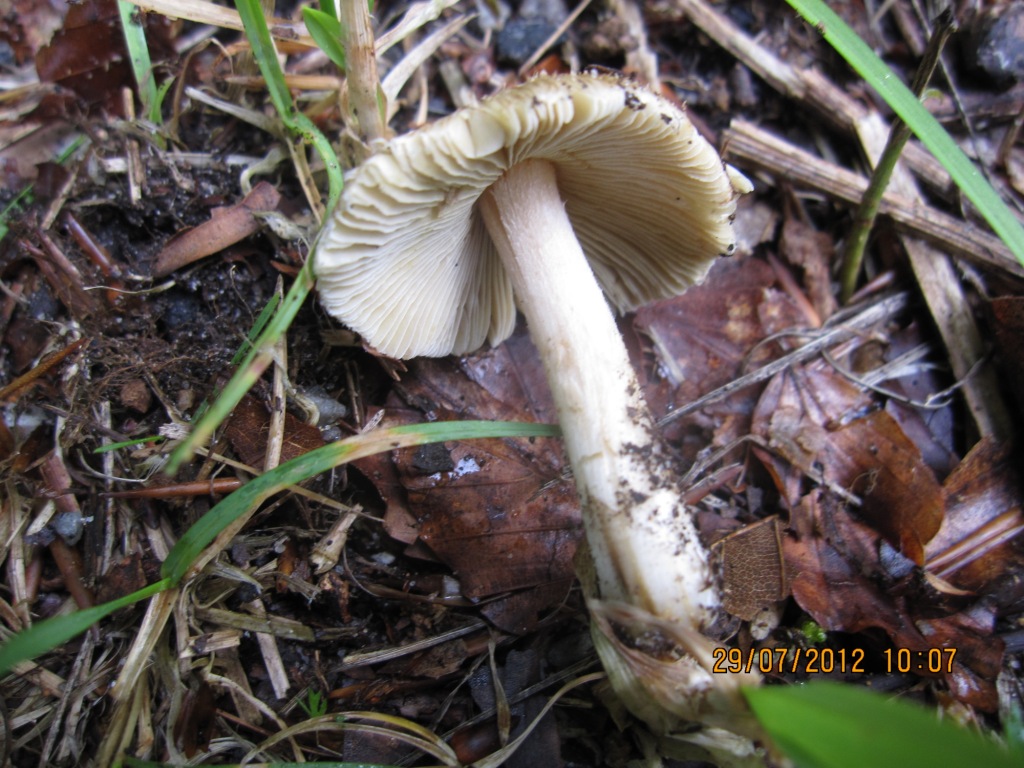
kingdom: Fungi
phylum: Basidiomycota
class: Agaricomycetes
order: Agaricales
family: Inocybaceae
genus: Pseudosperma
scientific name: Pseudosperma rimosum
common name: gulbladet trævlhat
